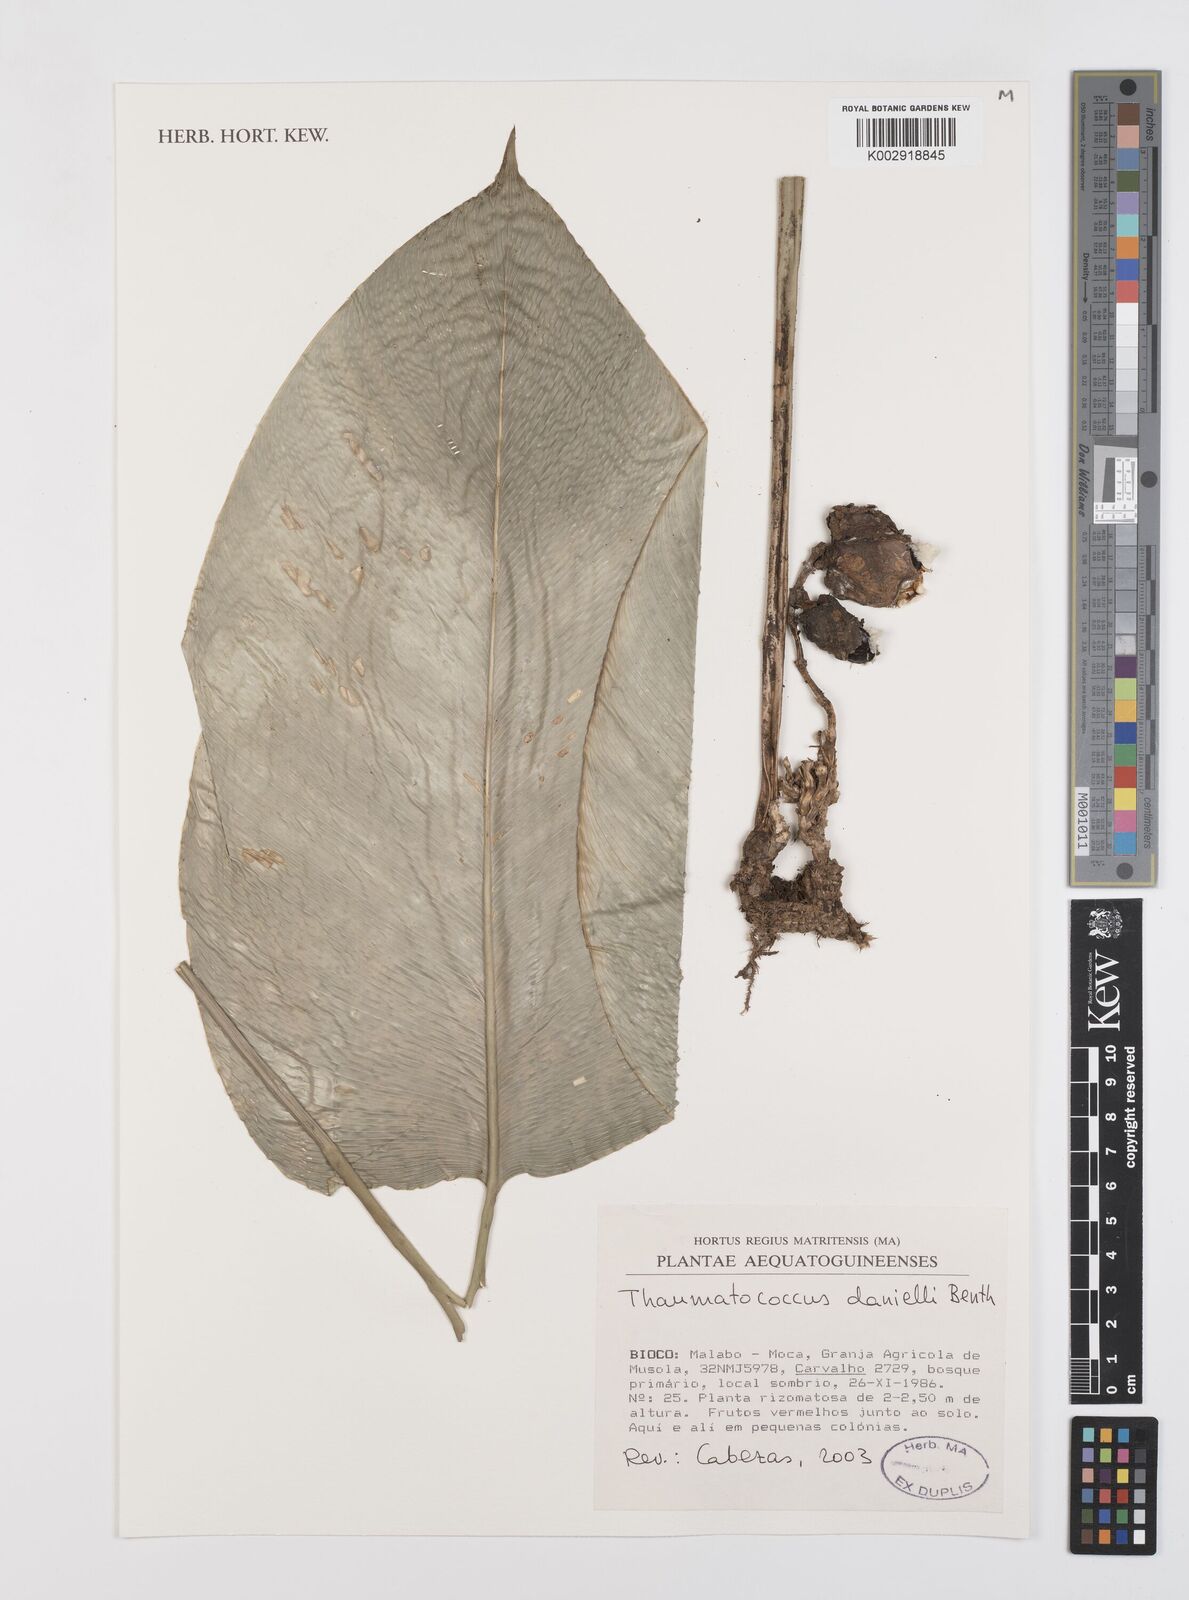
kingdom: Plantae
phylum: Tracheophyta
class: Liliopsida
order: Zingiberales
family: Marantaceae
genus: Thaumatococcus
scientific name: Thaumatococcus daniellii
